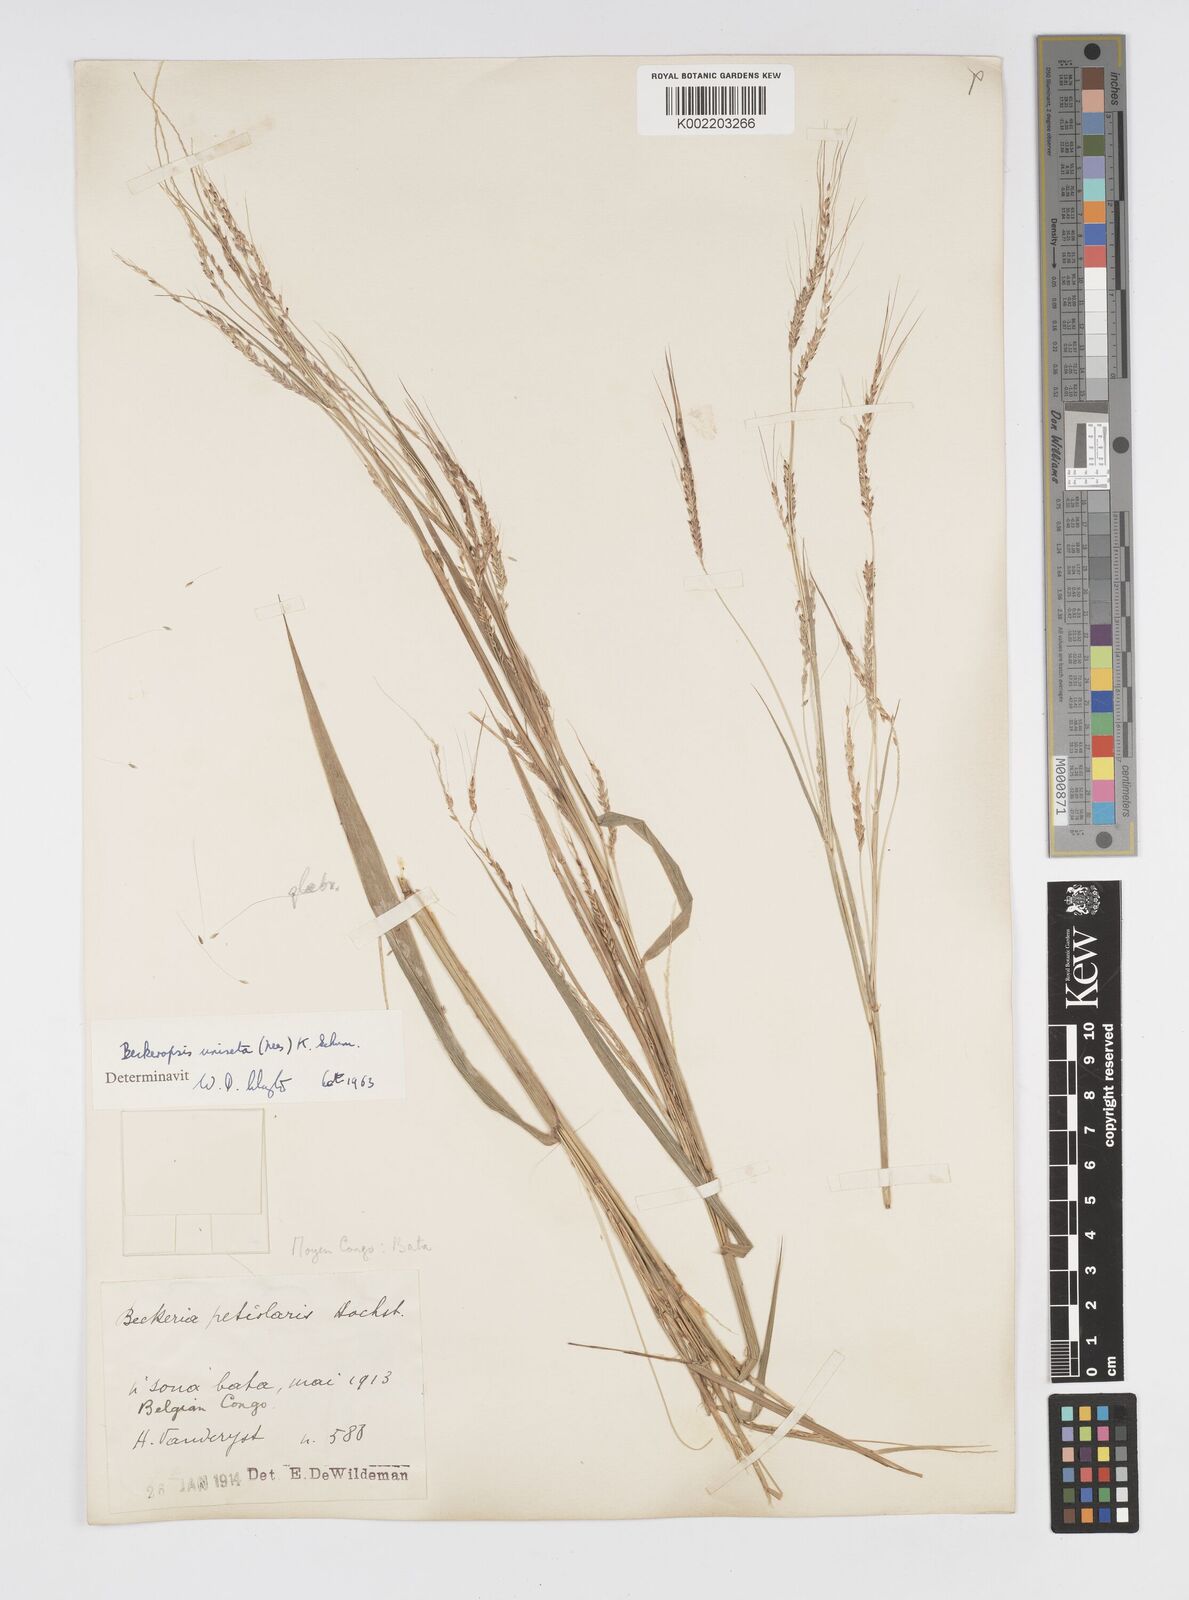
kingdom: Plantae
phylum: Tracheophyta
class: Liliopsida
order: Poales
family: Poaceae
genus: Cenchrus
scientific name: Cenchrus unisetus
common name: Natal grass
